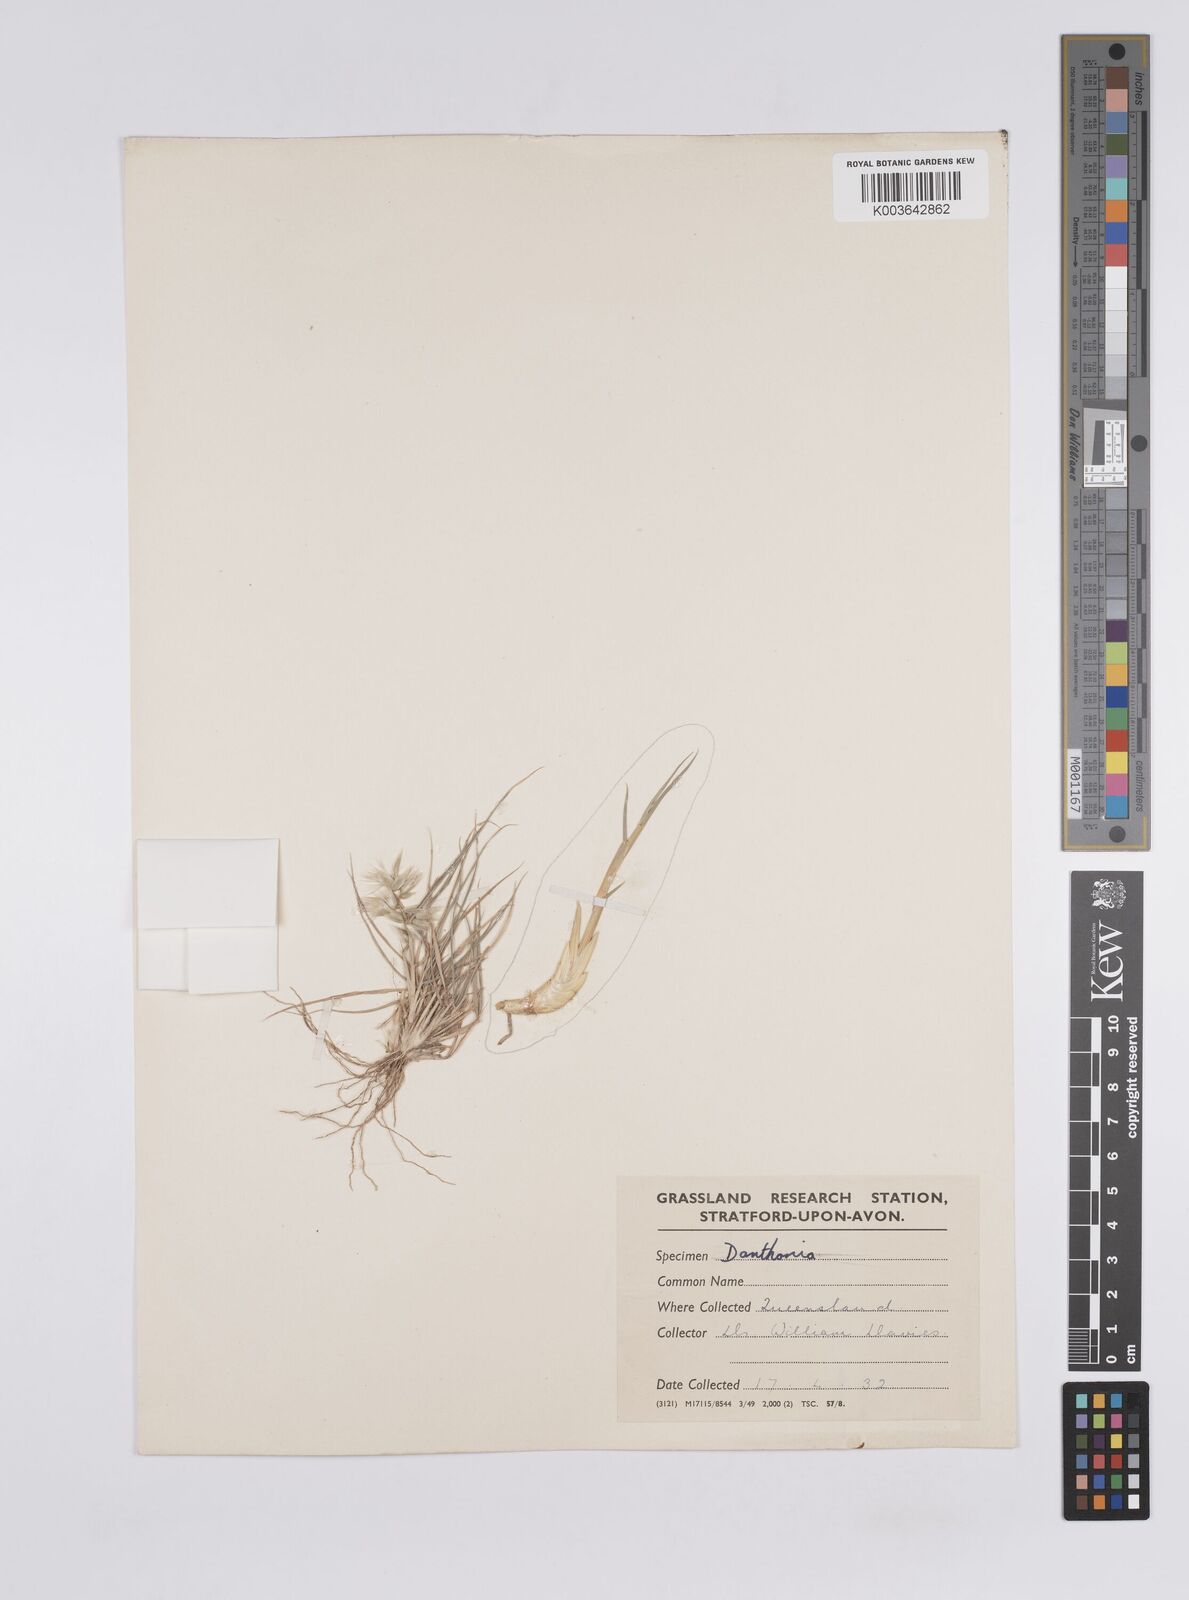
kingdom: Plantae
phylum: Tracheophyta
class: Liliopsida
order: Poales
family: Poaceae
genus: Enneapogon
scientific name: Enneapogon avenaceus
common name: Hairy oat grass
